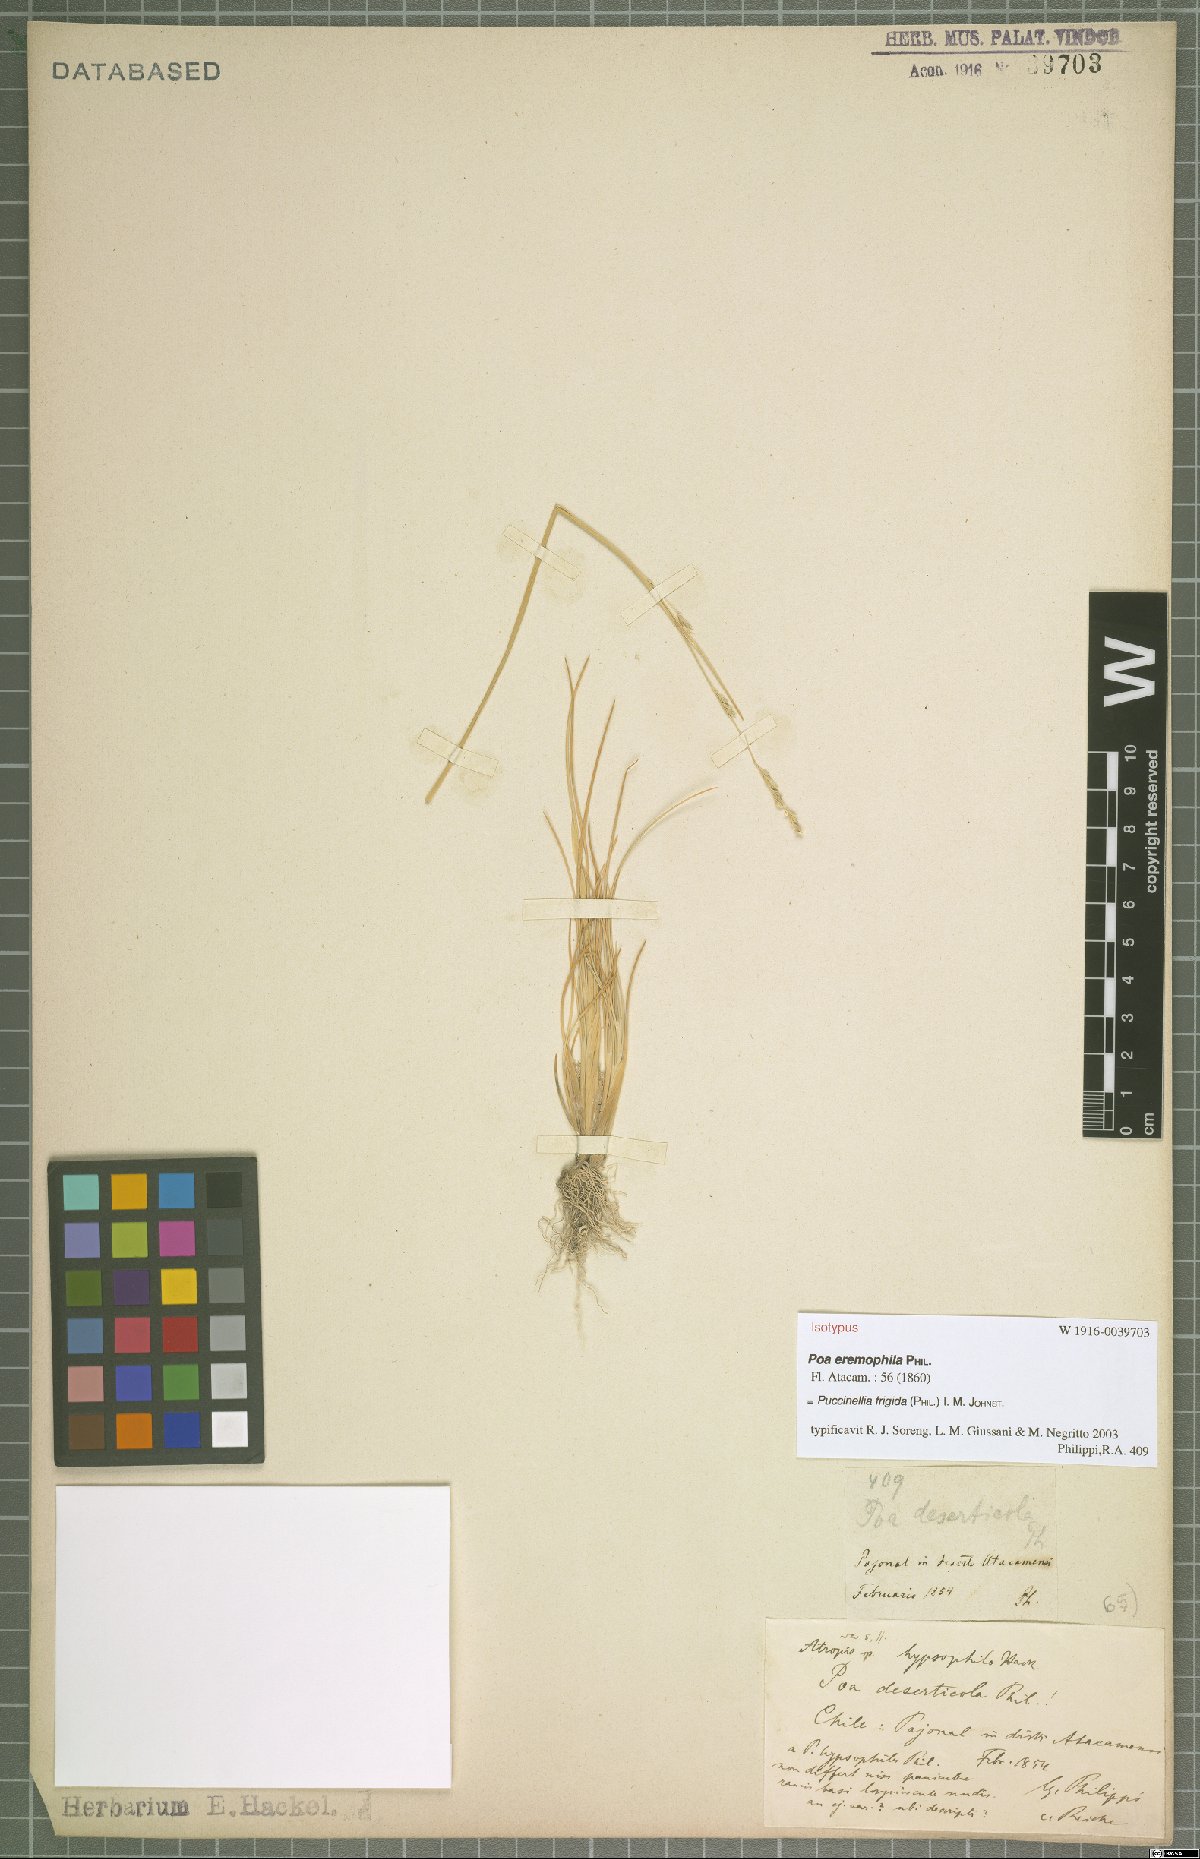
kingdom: Plantae
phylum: Tracheophyta
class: Liliopsida
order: Poales
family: Poaceae
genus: Puccinellia
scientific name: Puccinellia frigida
